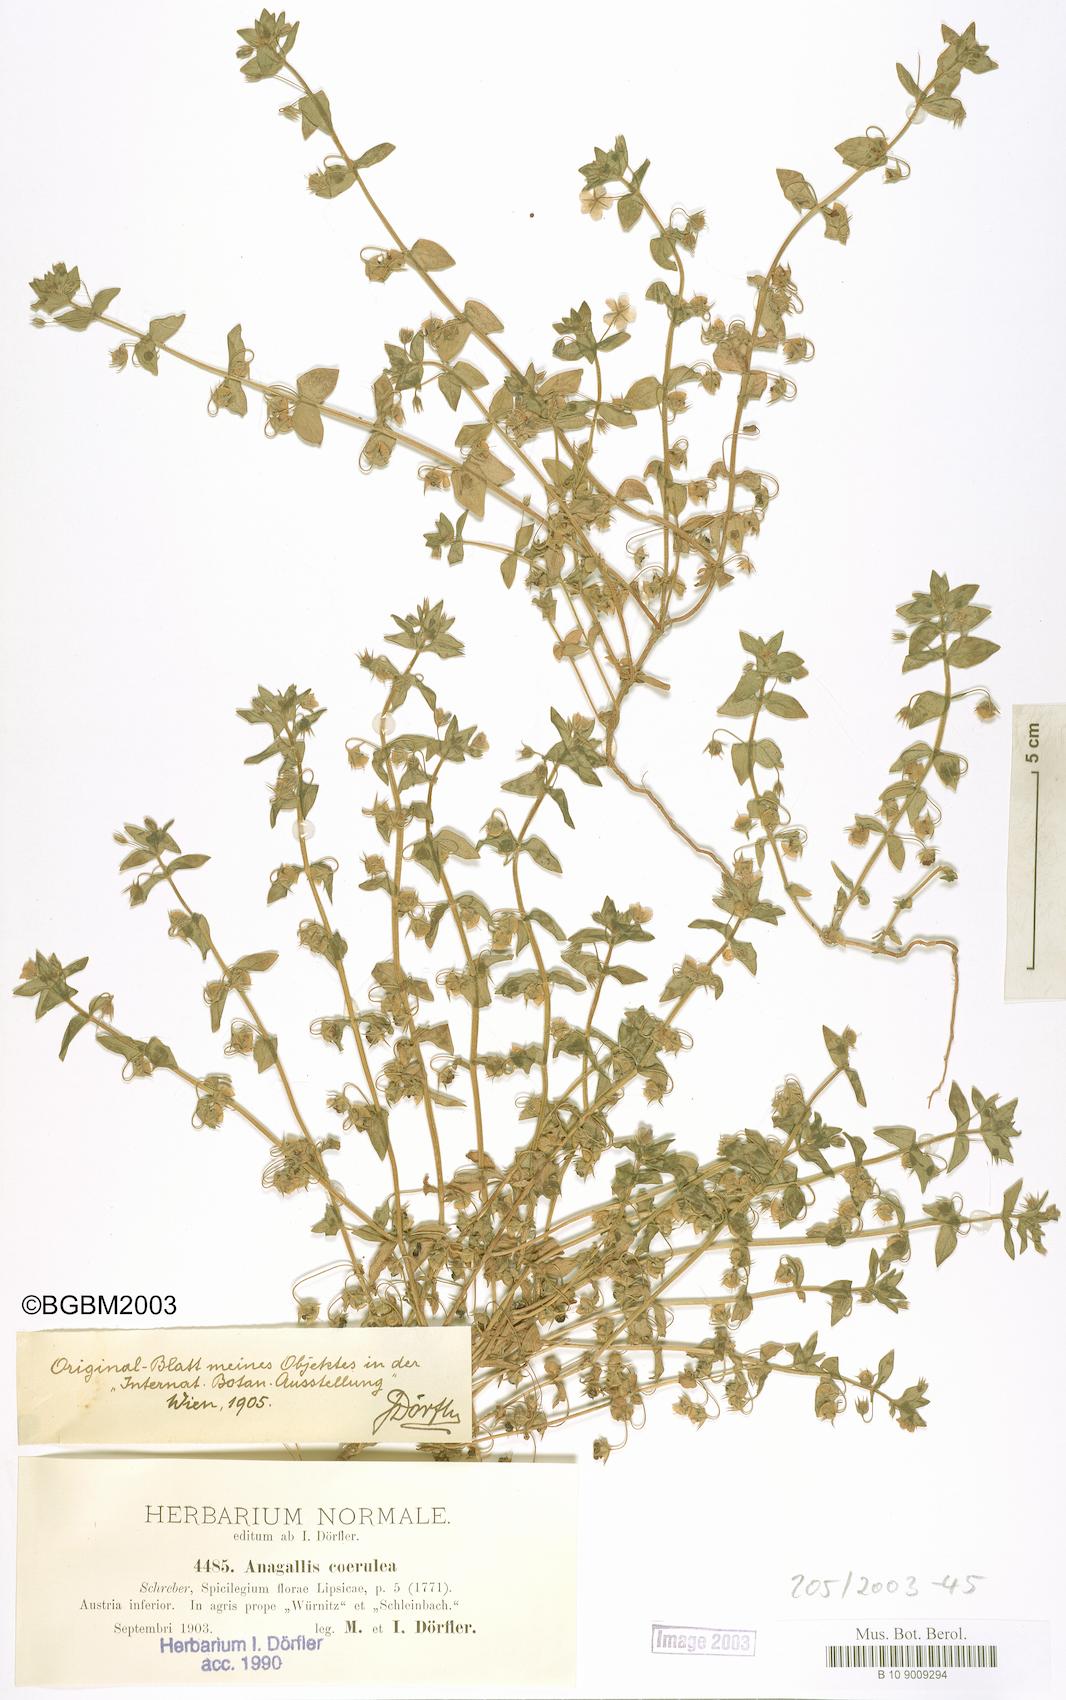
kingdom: Plantae
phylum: Tracheophyta
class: Magnoliopsida
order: Ericales
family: Primulaceae
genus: Lysimachia
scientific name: Lysimachia loeflingii
